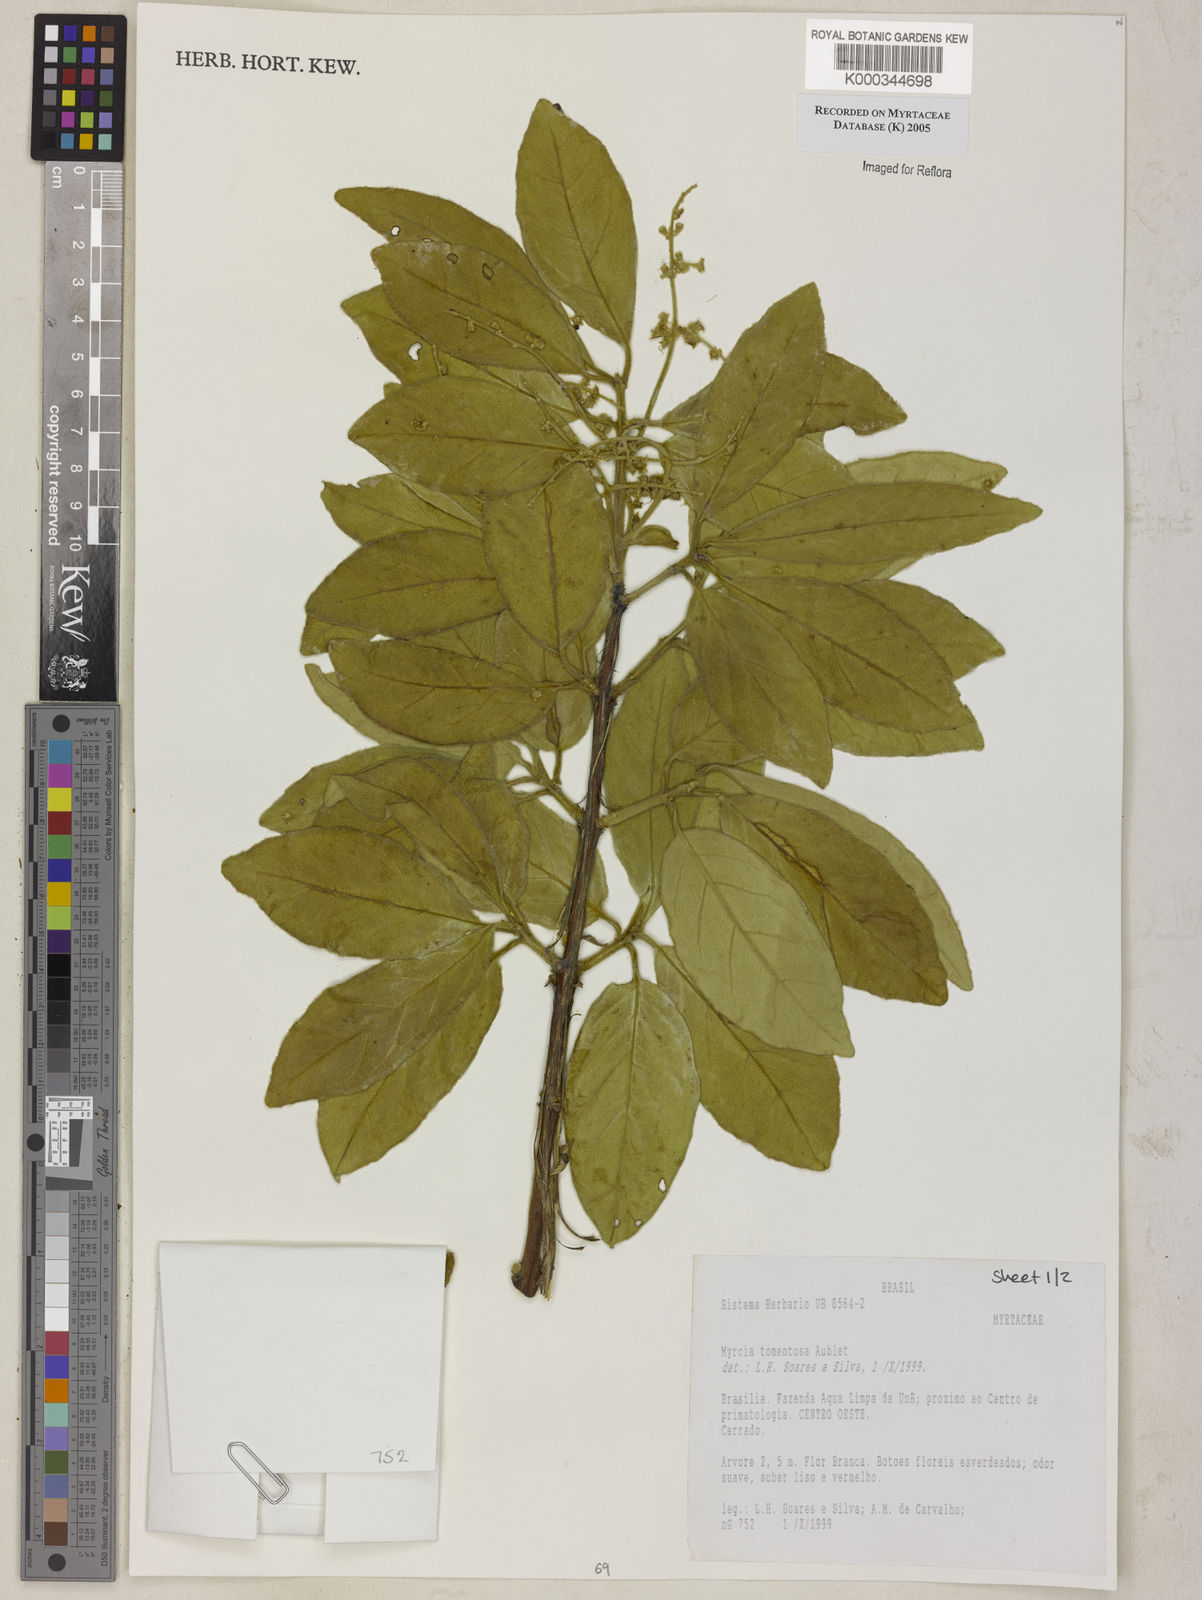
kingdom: Plantae
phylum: Tracheophyta
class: Magnoliopsida
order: Myrtales
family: Myrtaceae
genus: Myrcia
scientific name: Myrcia tomentosa
